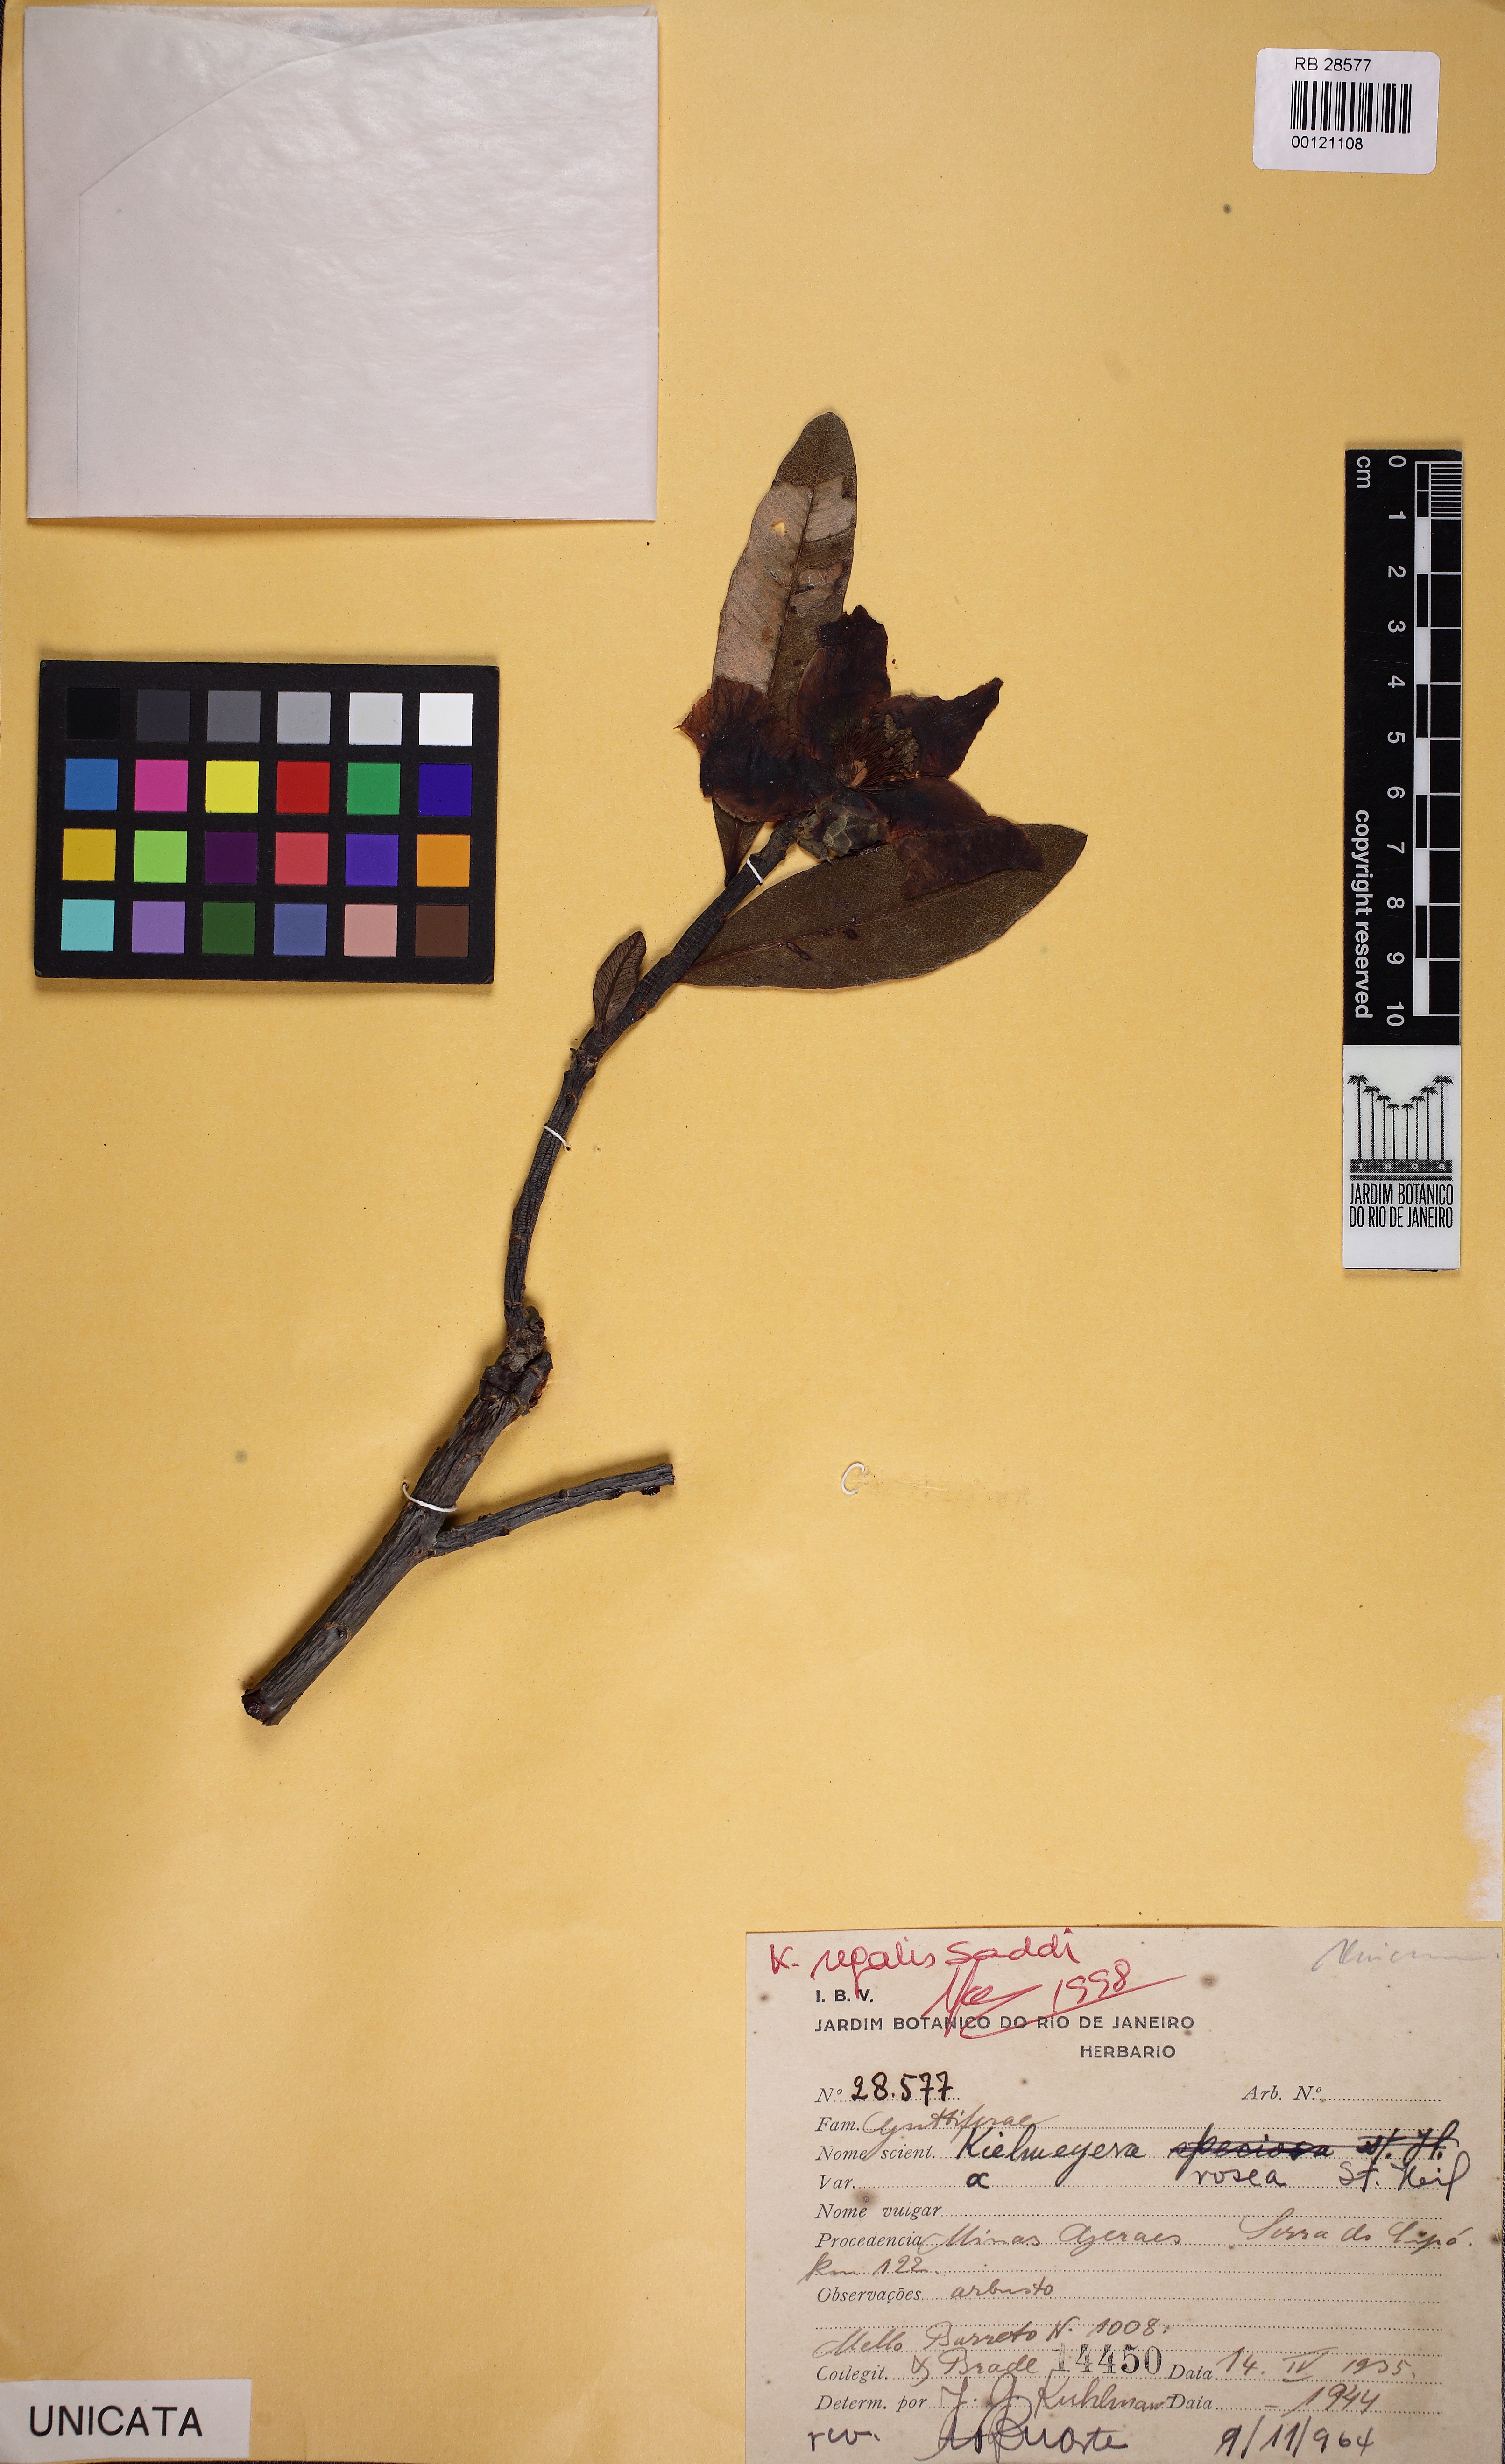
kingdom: Plantae
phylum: Tracheophyta
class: Magnoliopsida
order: Malpighiales
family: Calophyllaceae
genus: Kielmeyera
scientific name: Kielmeyera regalis
